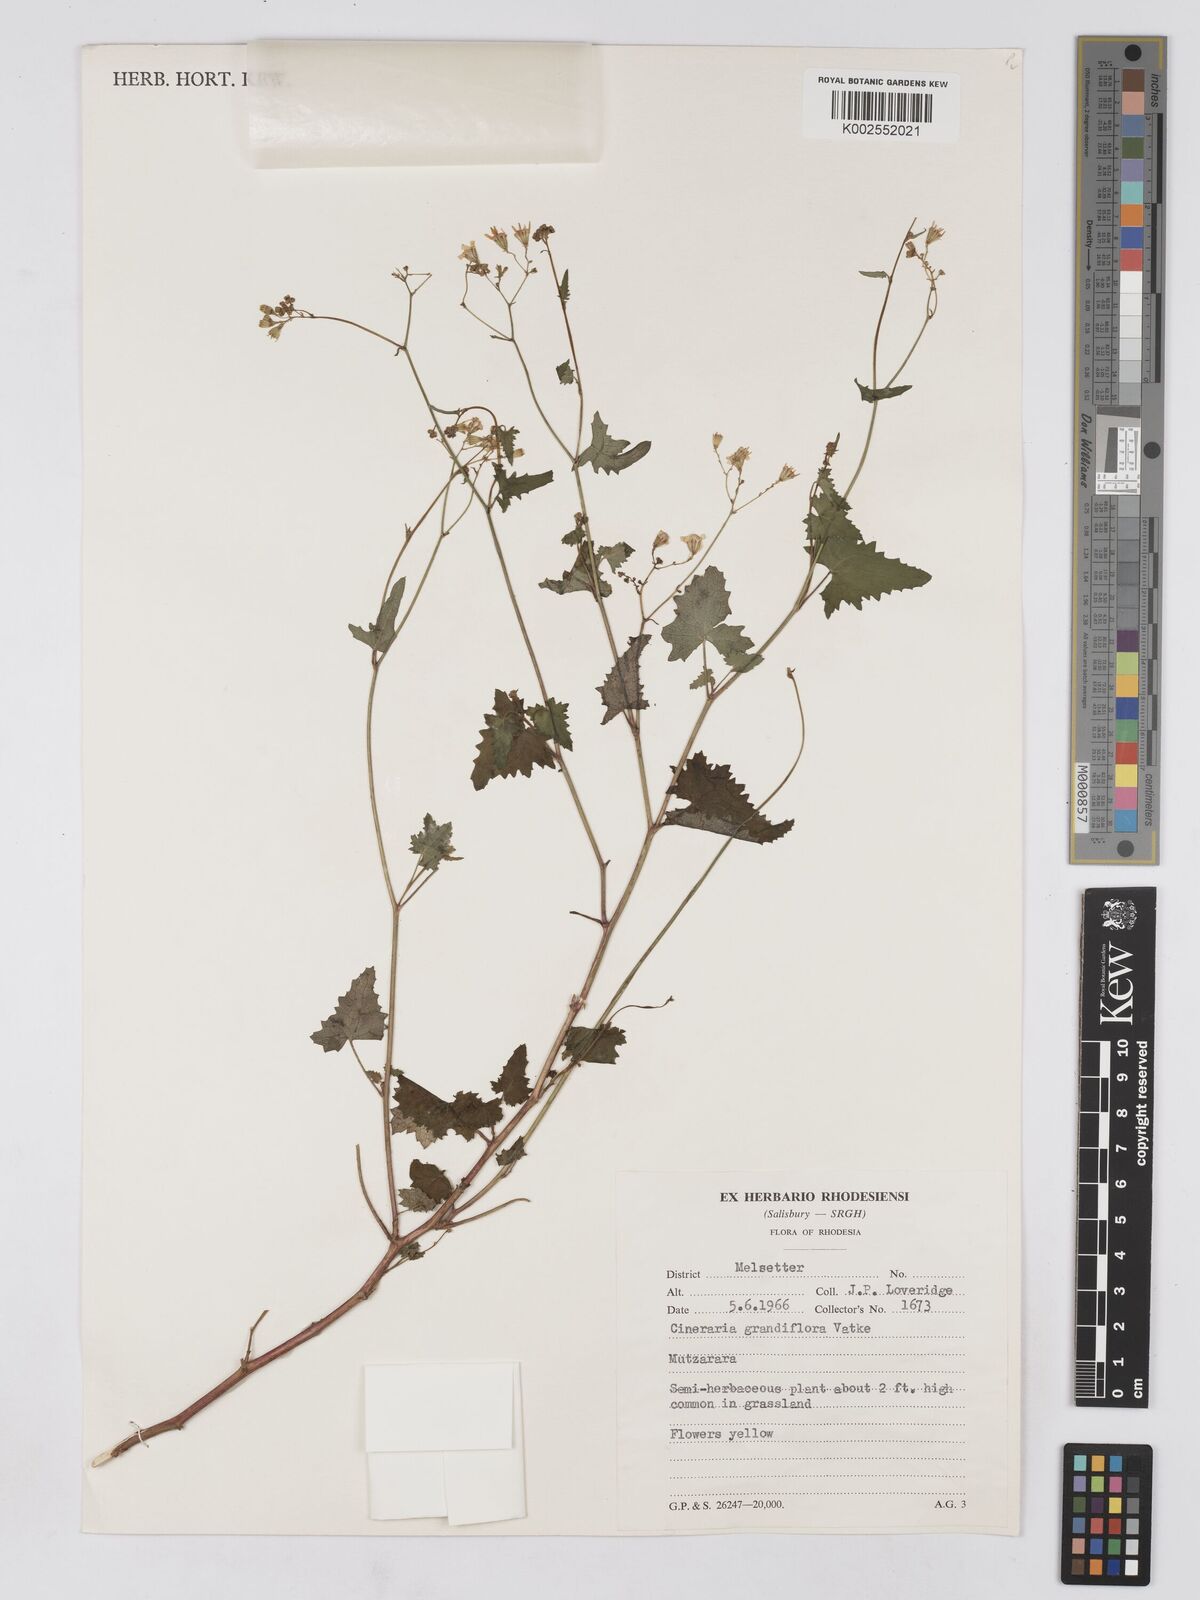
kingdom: Plantae
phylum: Tracheophyta
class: Magnoliopsida
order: Asterales
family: Asteraceae
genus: Cineraria
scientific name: Cineraria deltoidea
